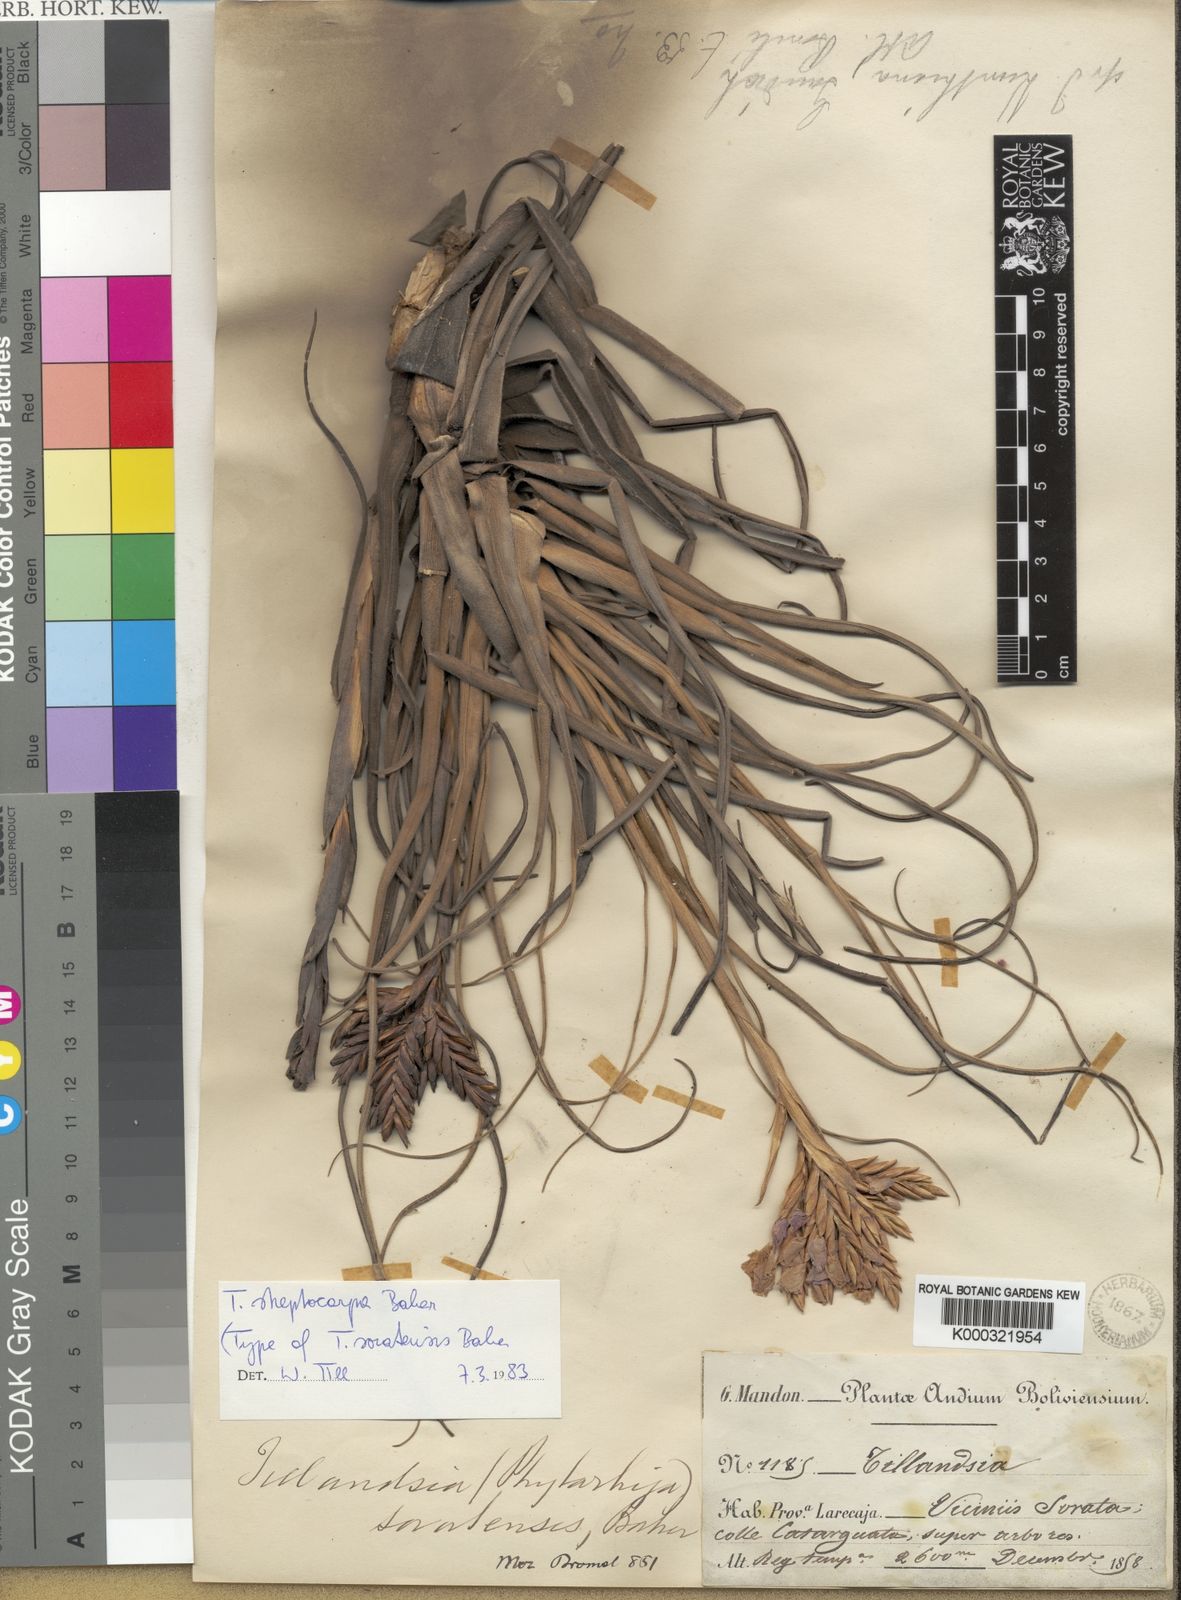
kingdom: Plantae
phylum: Tracheophyta
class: Liliopsida
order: Poales
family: Bromeliaceae
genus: Tillandsia
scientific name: Tillandsia streptocarpa
